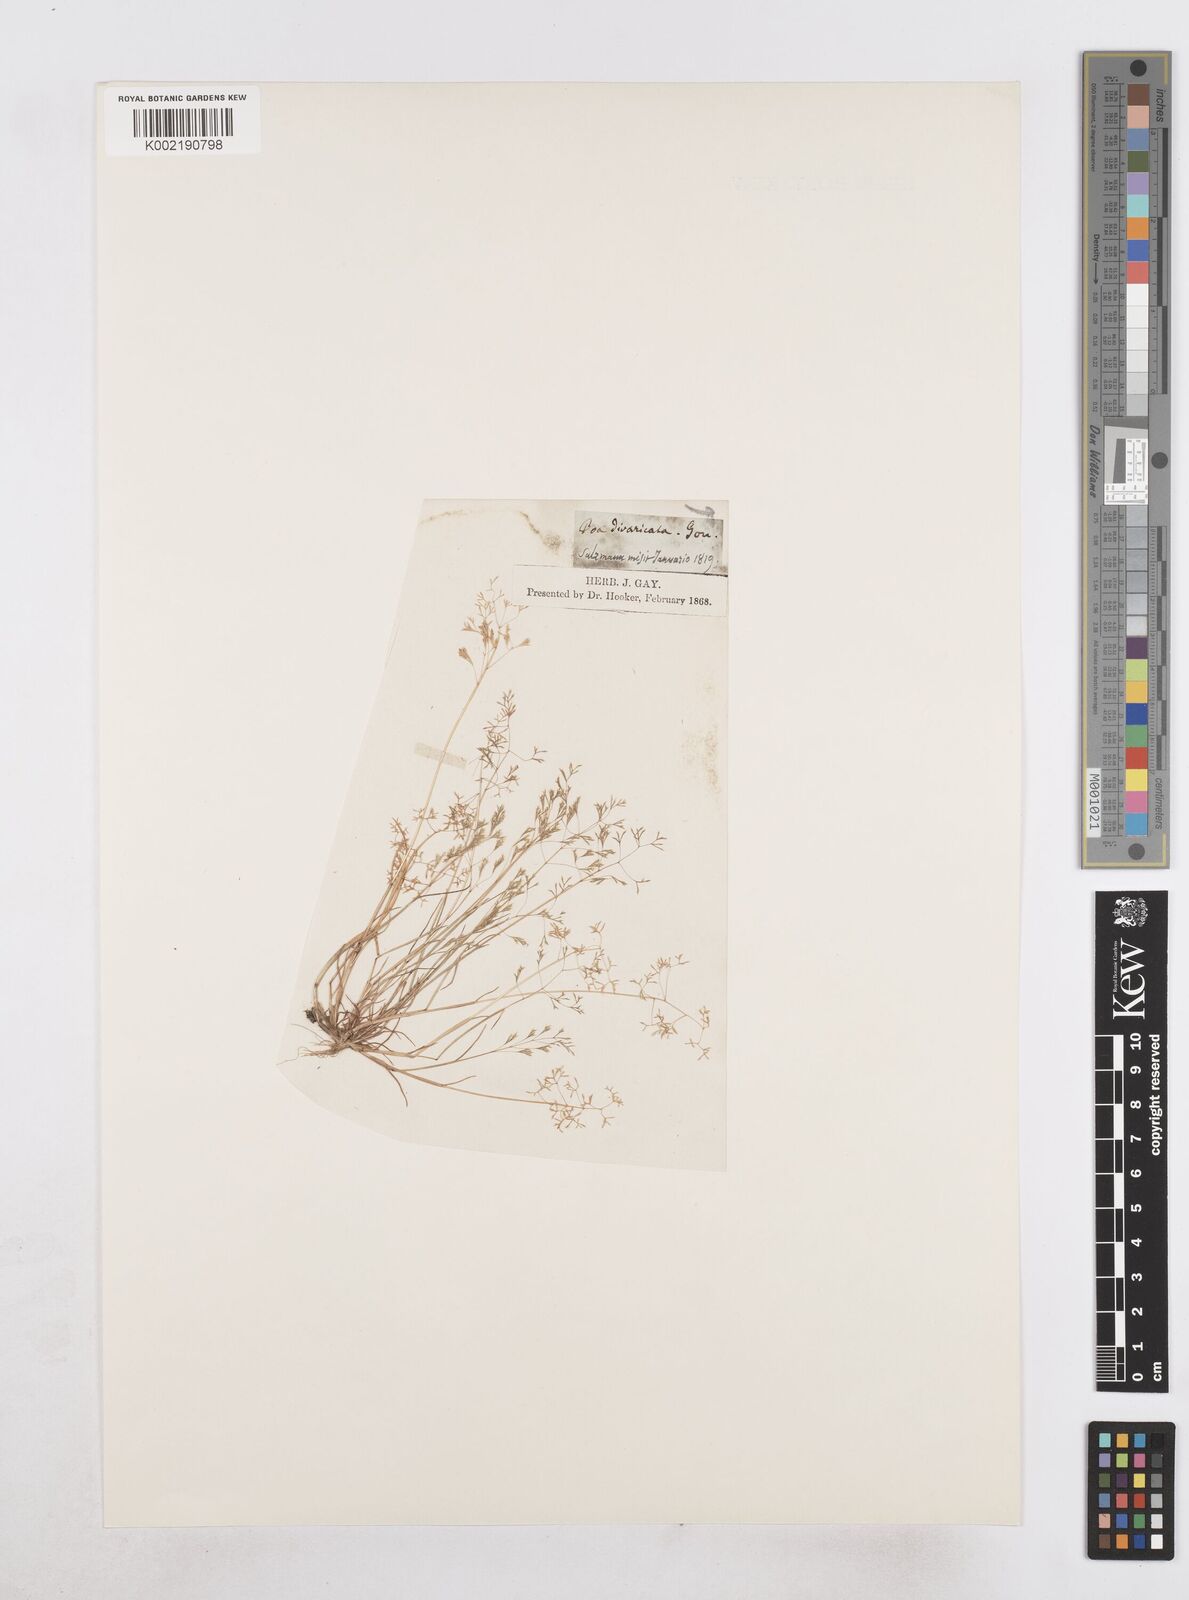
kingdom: Plantae
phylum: Tracheophyta
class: Liliopsida
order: Poales
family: Poaceae
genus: Sphenopus
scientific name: Sphenopus divaricatus
